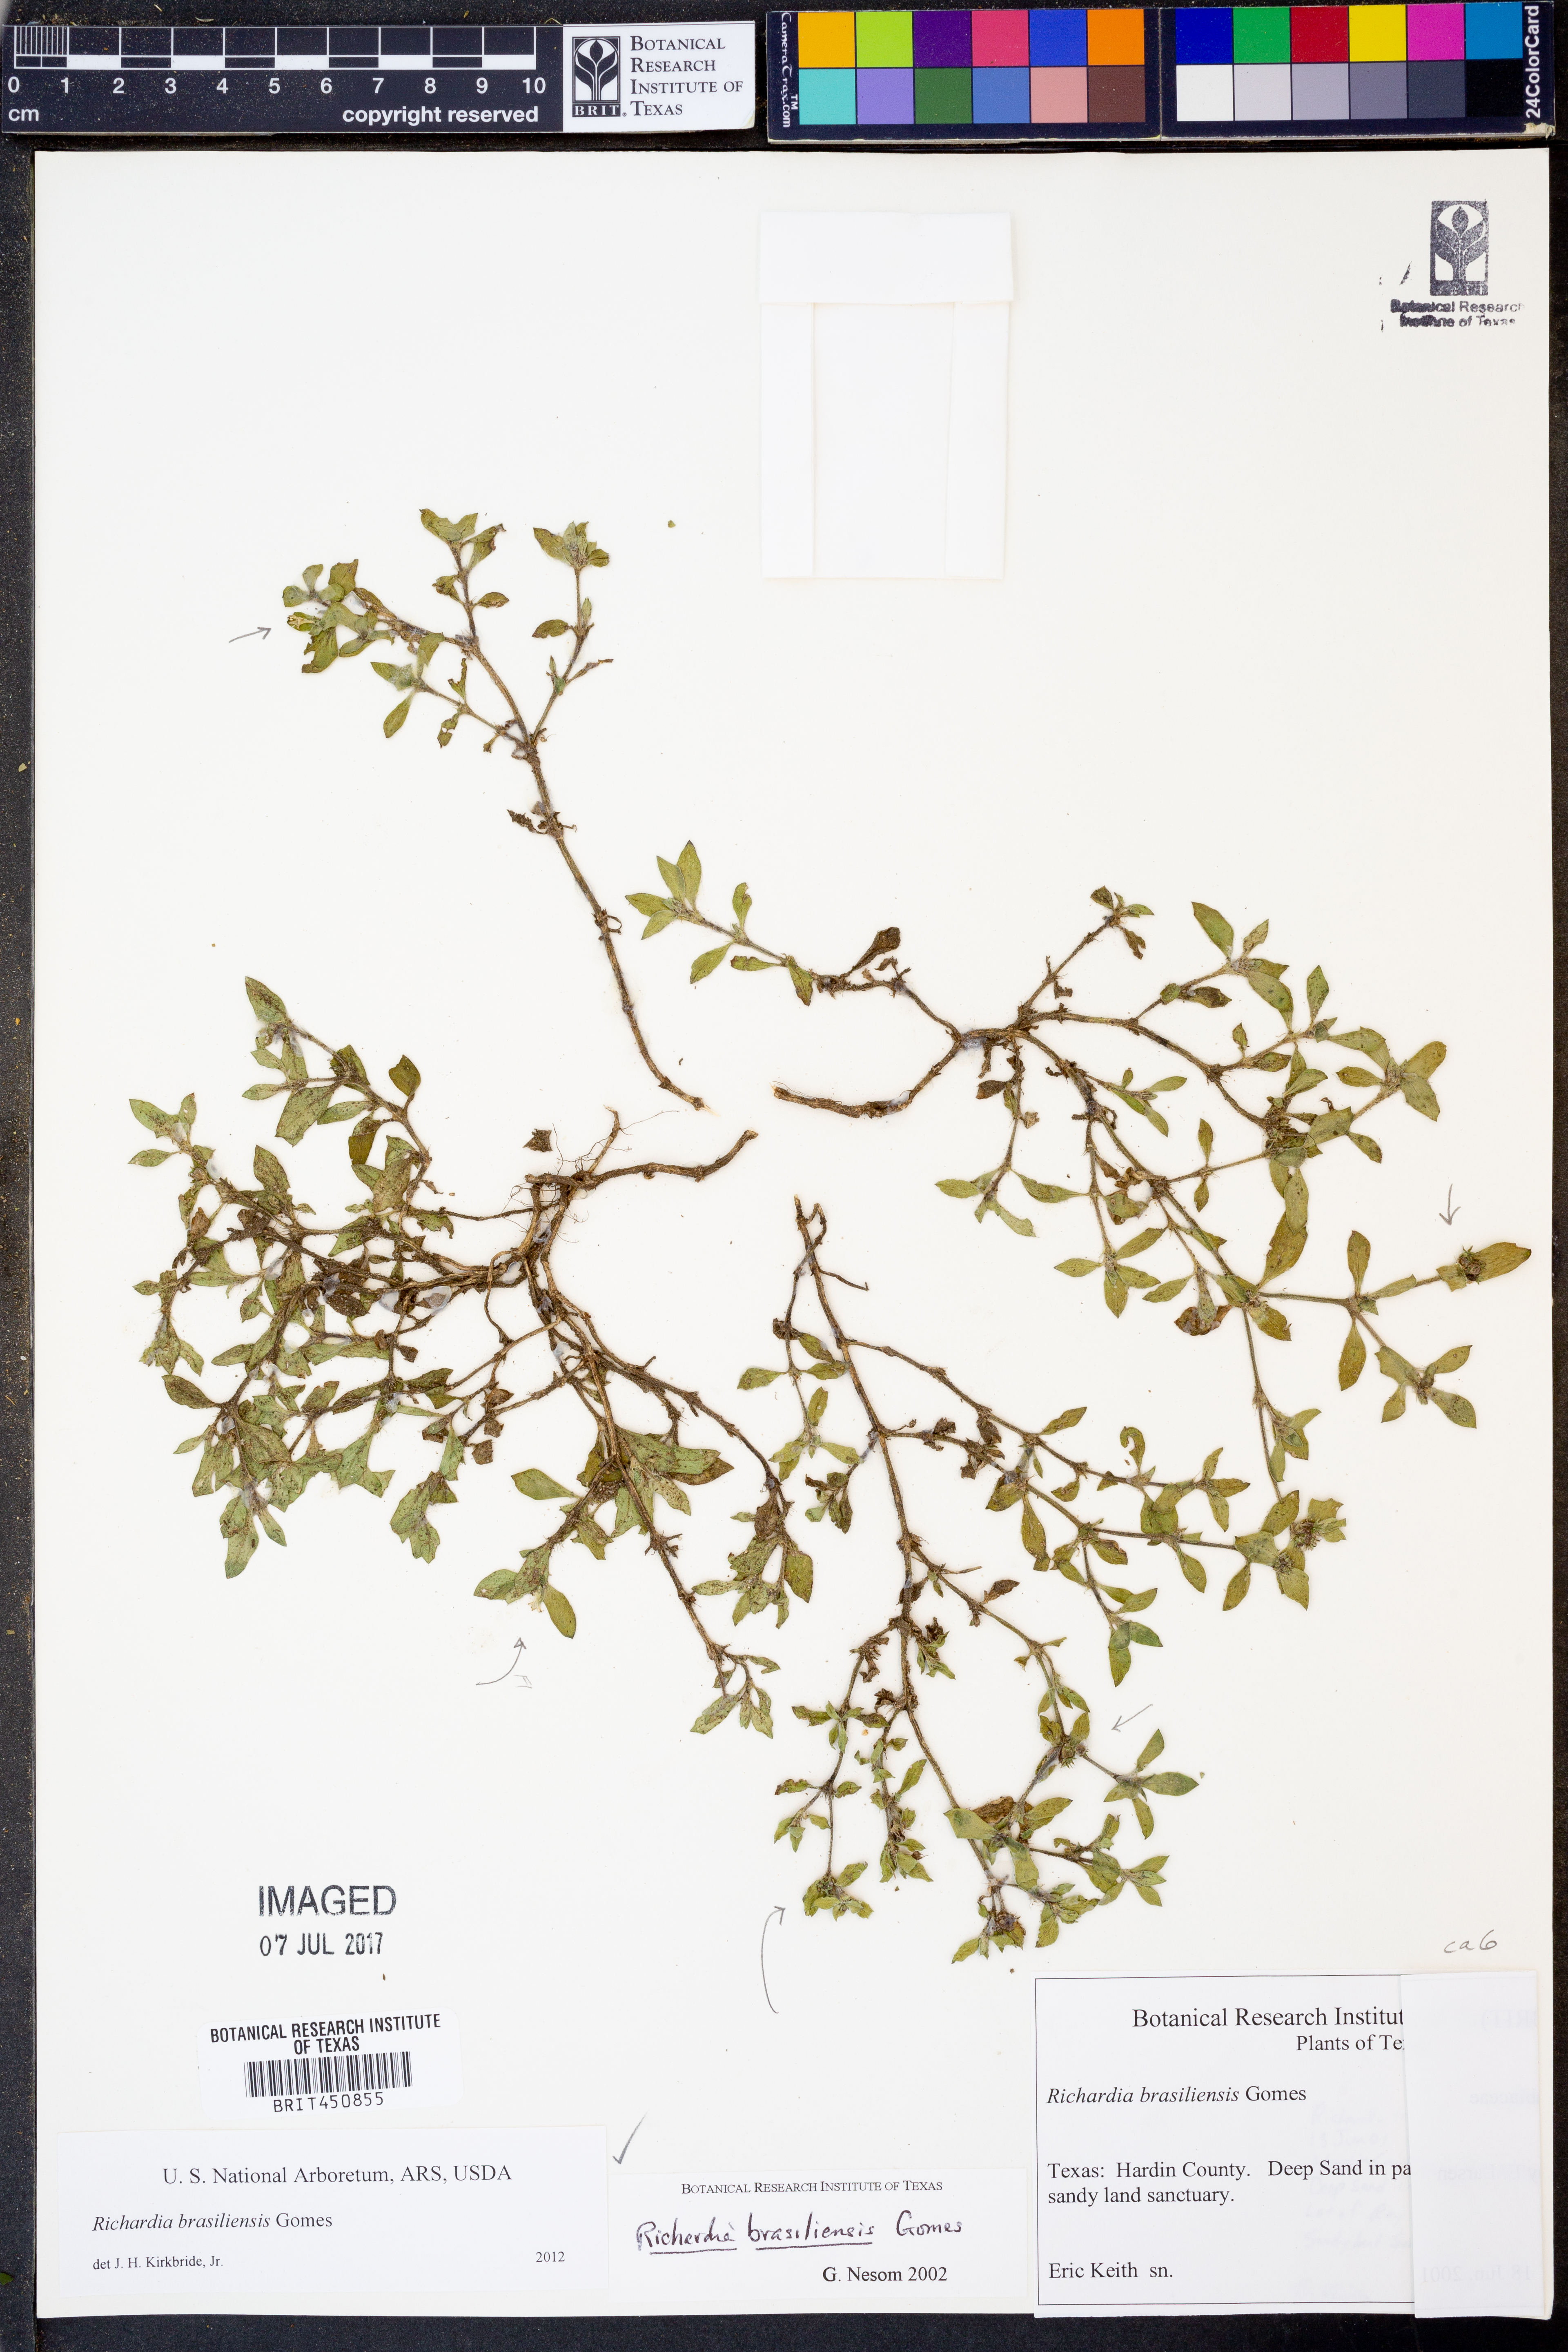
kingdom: Plantae
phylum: Tracheophyta
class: Magnoliopsida
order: Gentianales
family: Rubiaceae
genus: Richardia
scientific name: Richardia brasiliensis
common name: Tropical mexican clover
